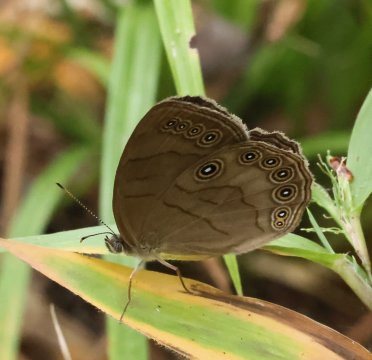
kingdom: Animalia
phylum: Arthropoda
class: Insecta
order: Lepidoptera
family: Nymphalidae
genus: Lethe
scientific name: Lethe eurydice
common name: Appalachian Eyed Brown
